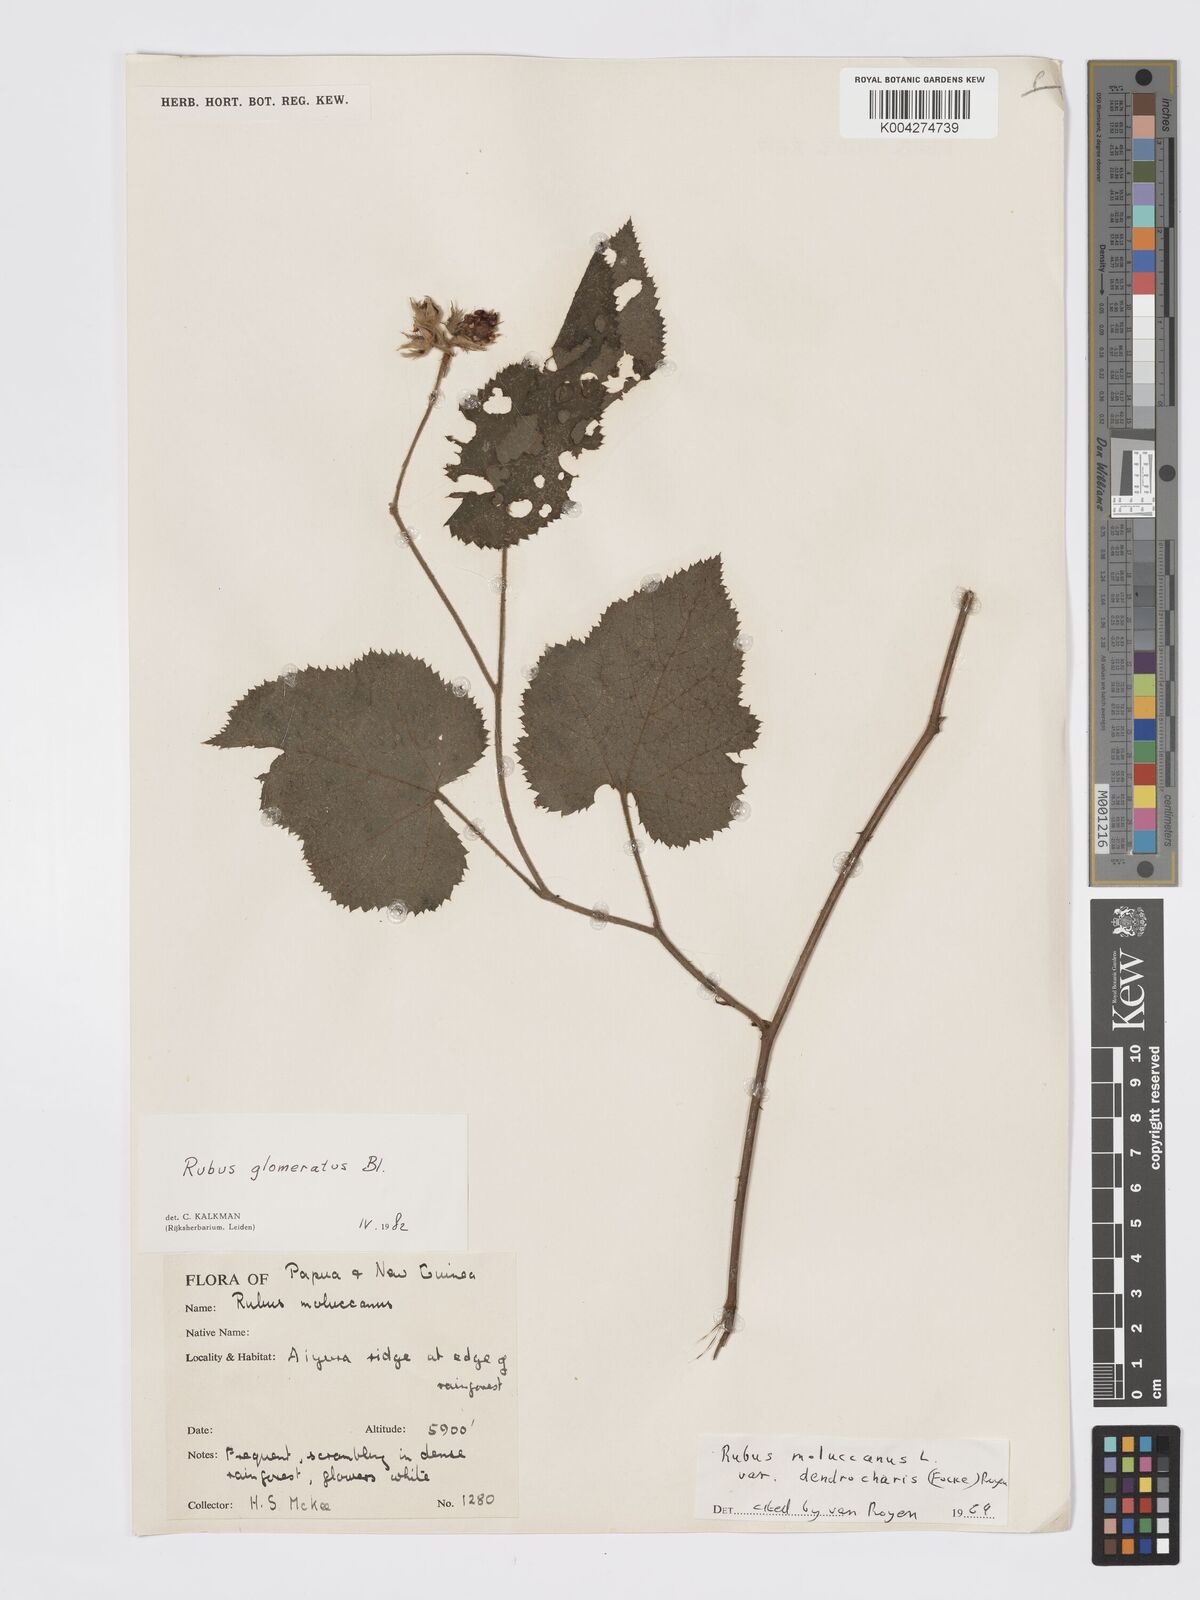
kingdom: Plantae
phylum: Tracheophyta
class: Magnoliopsida
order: Rosales
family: Rosaceae
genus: Rubus
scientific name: Rubus
